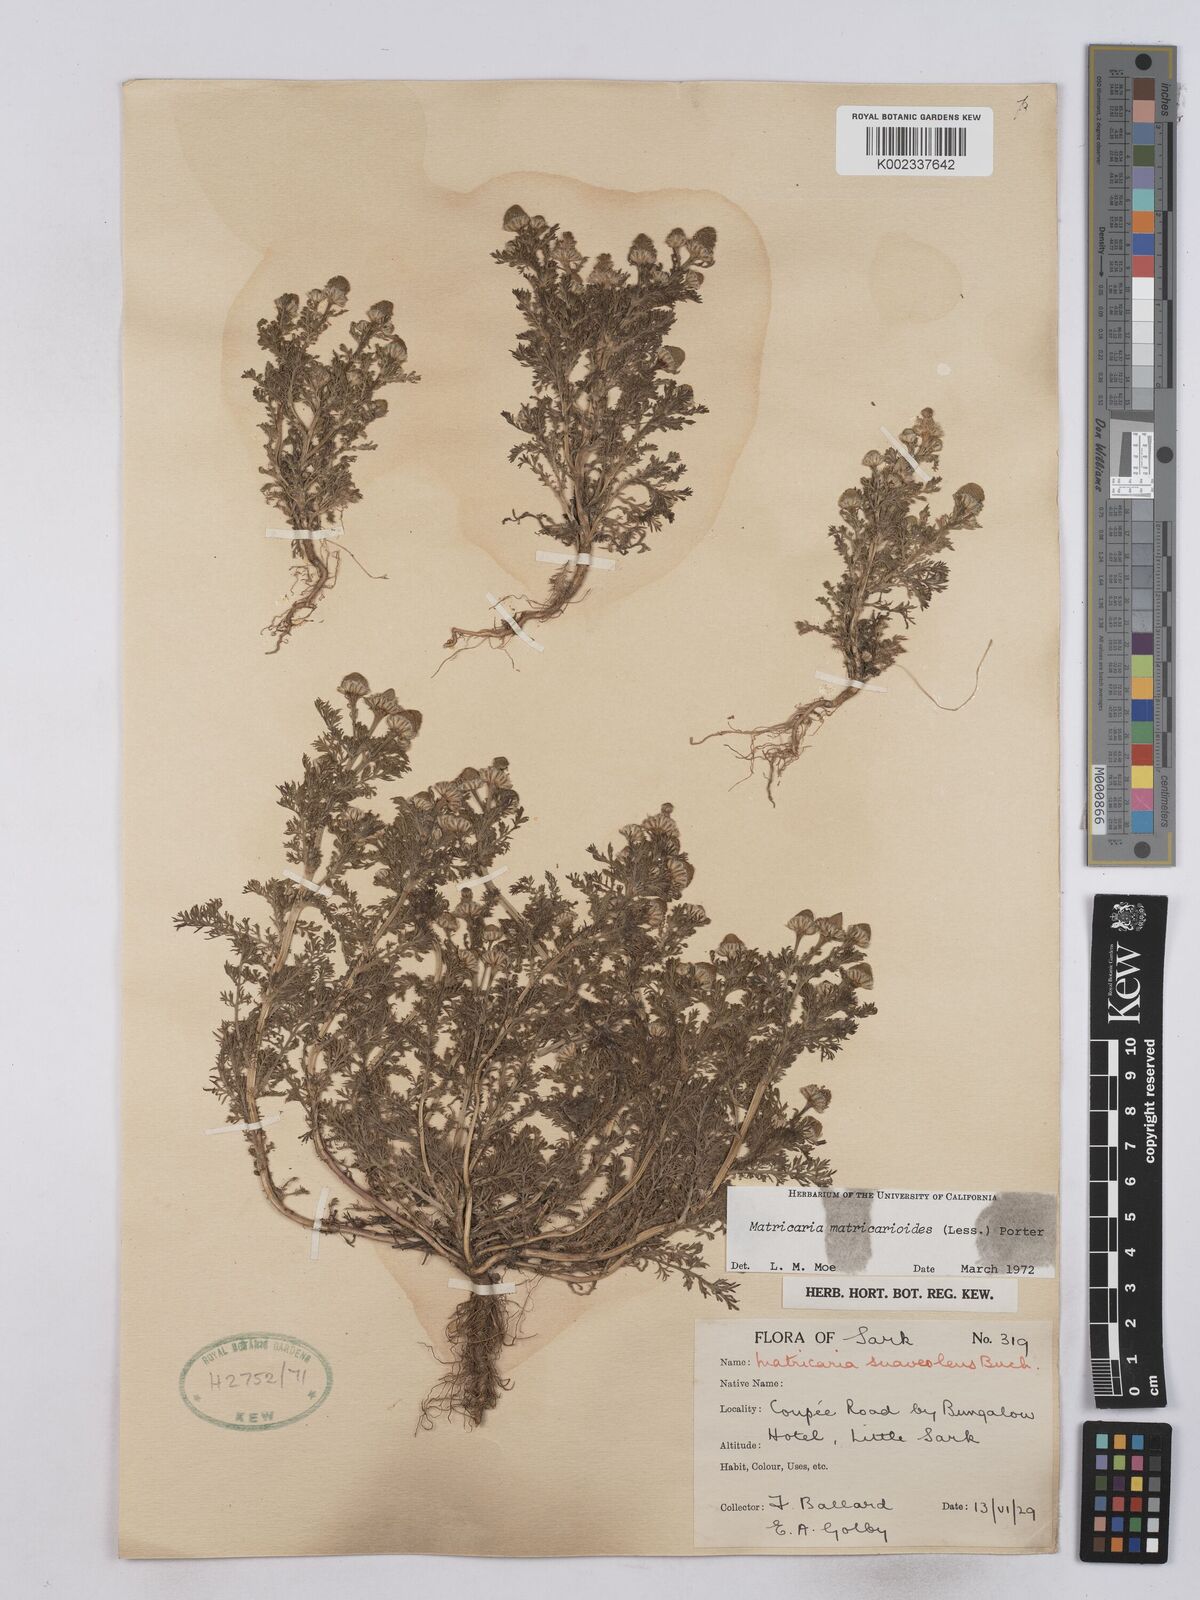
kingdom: Plantae
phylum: Tracheophyta
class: Magnoliopsida
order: Asterales
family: Asteraceae
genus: Matricaria
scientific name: Matricaria discoidea
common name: Disc mayweed
